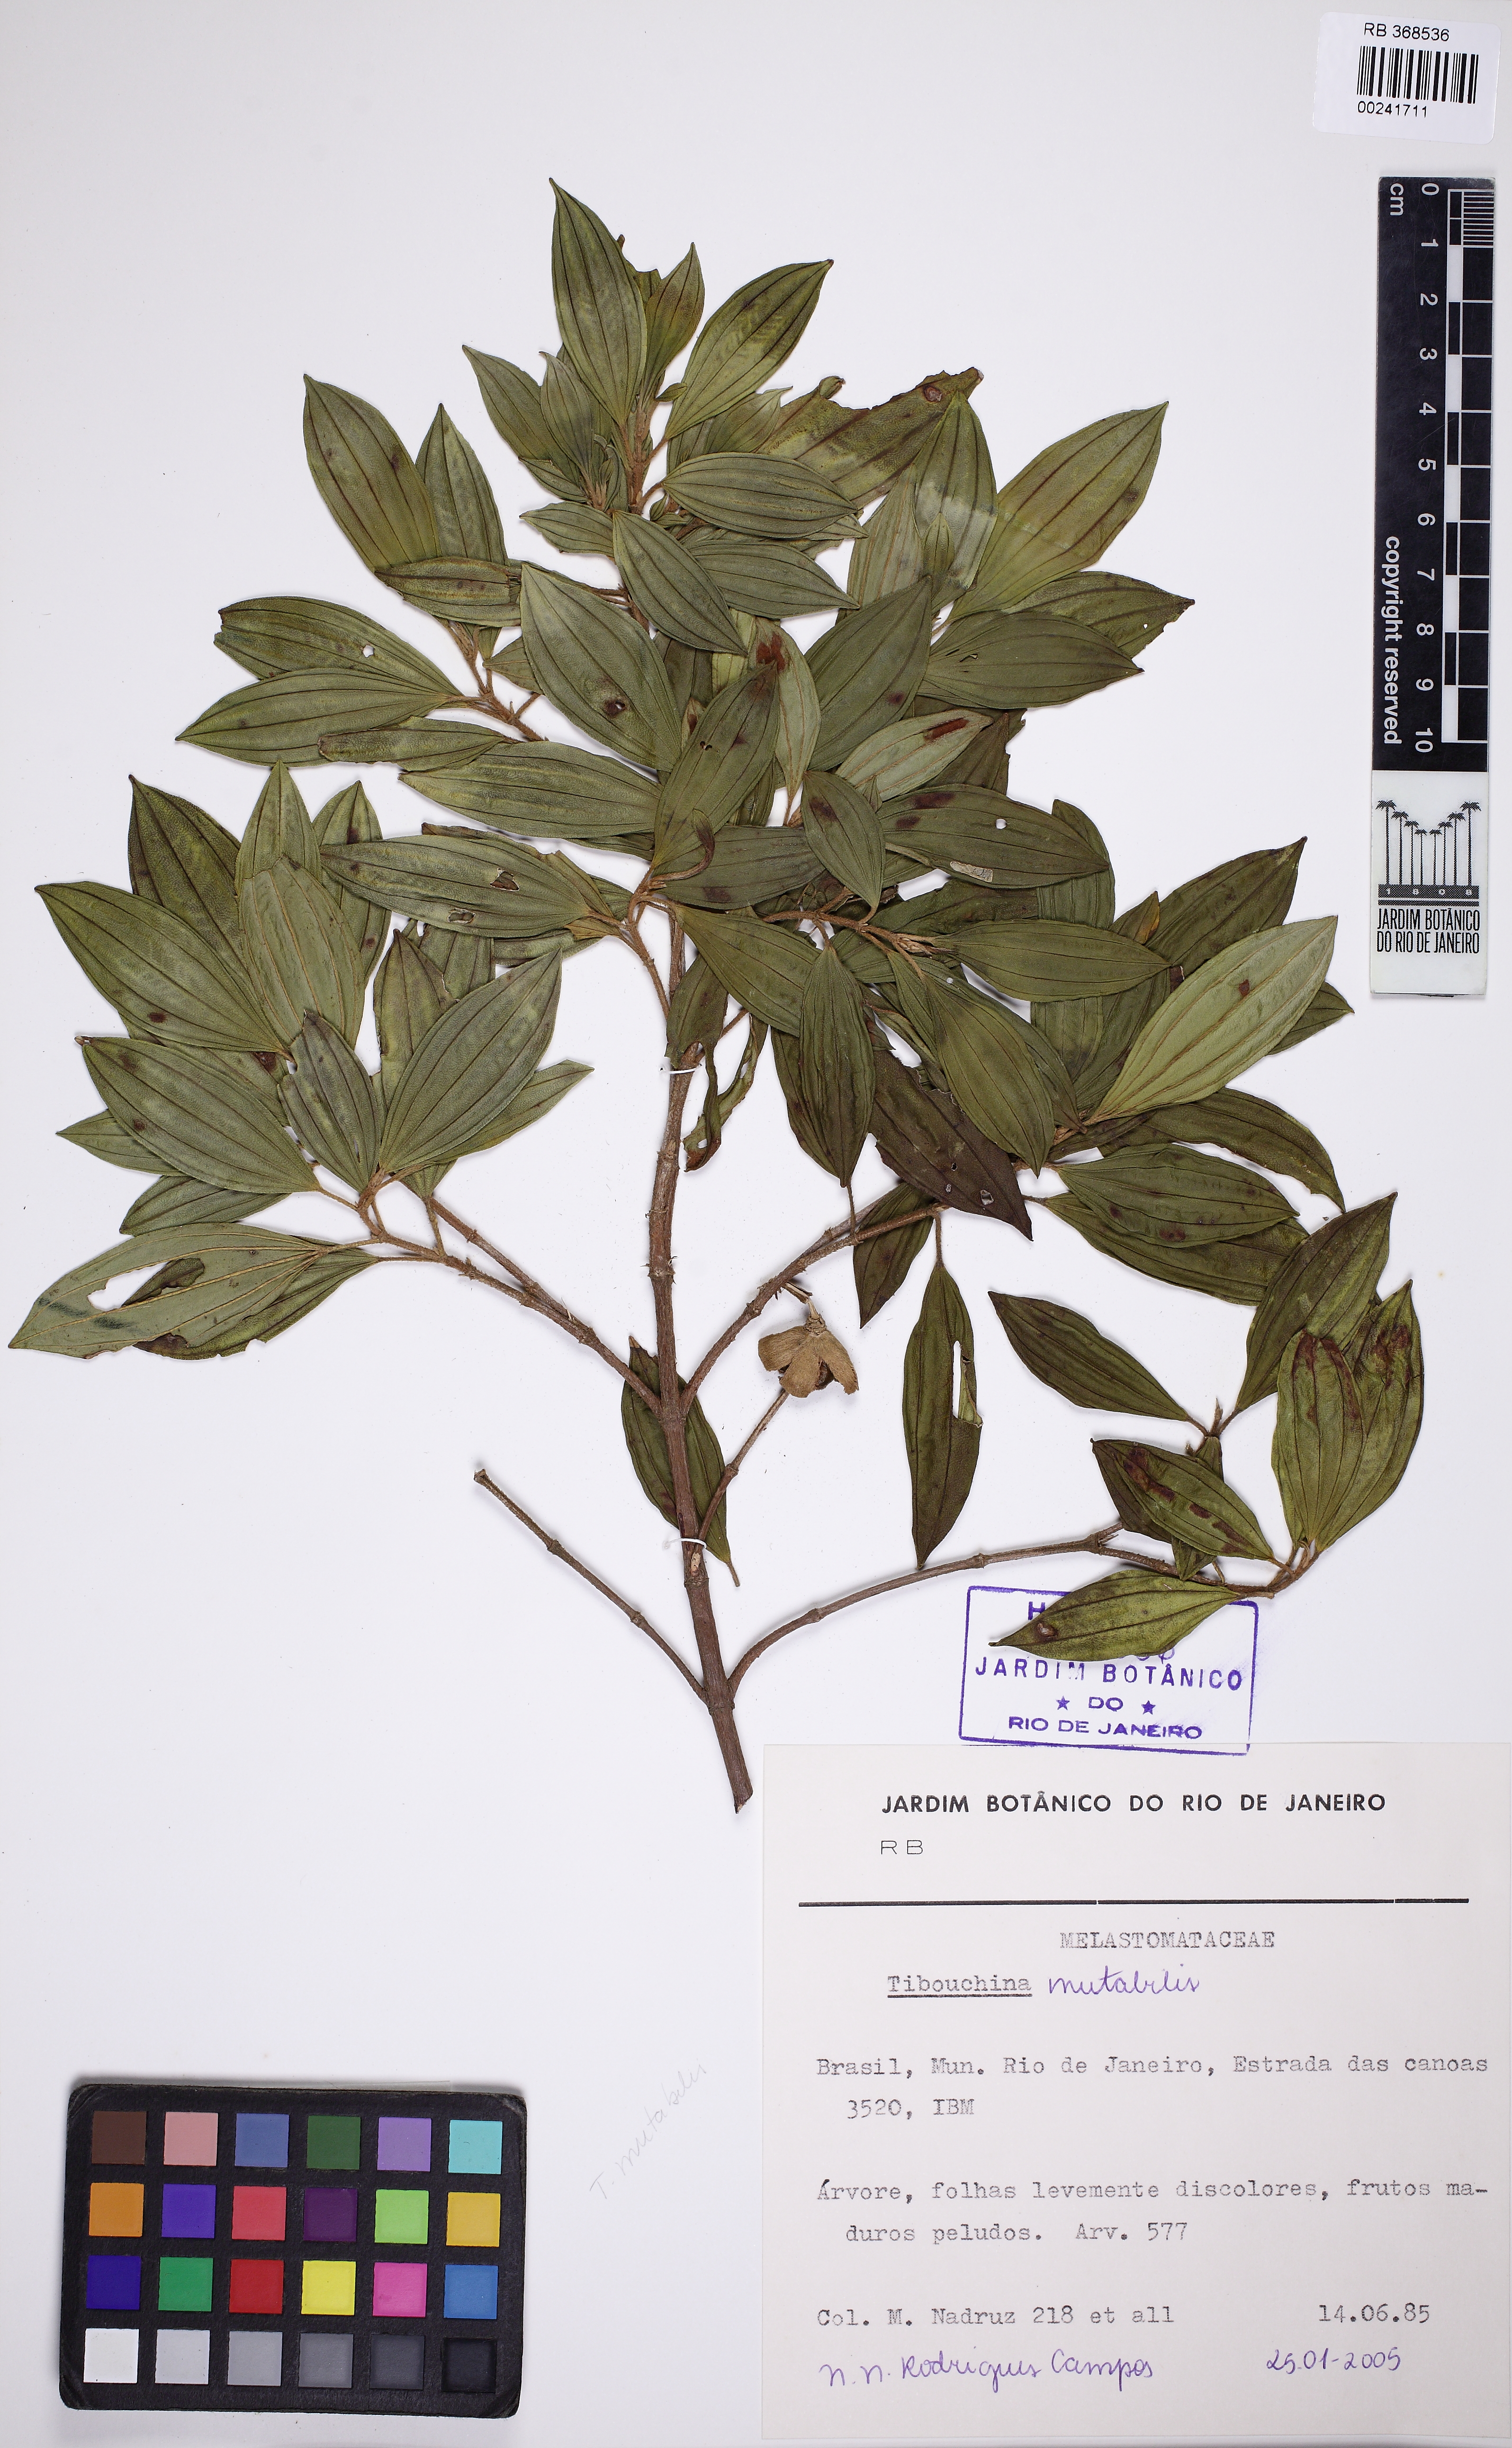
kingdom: Plantae
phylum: Tracheophyta
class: Magnoliopsida
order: Myrtales
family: Melastomataceae
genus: Pleroma
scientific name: Pleroma mutabile
